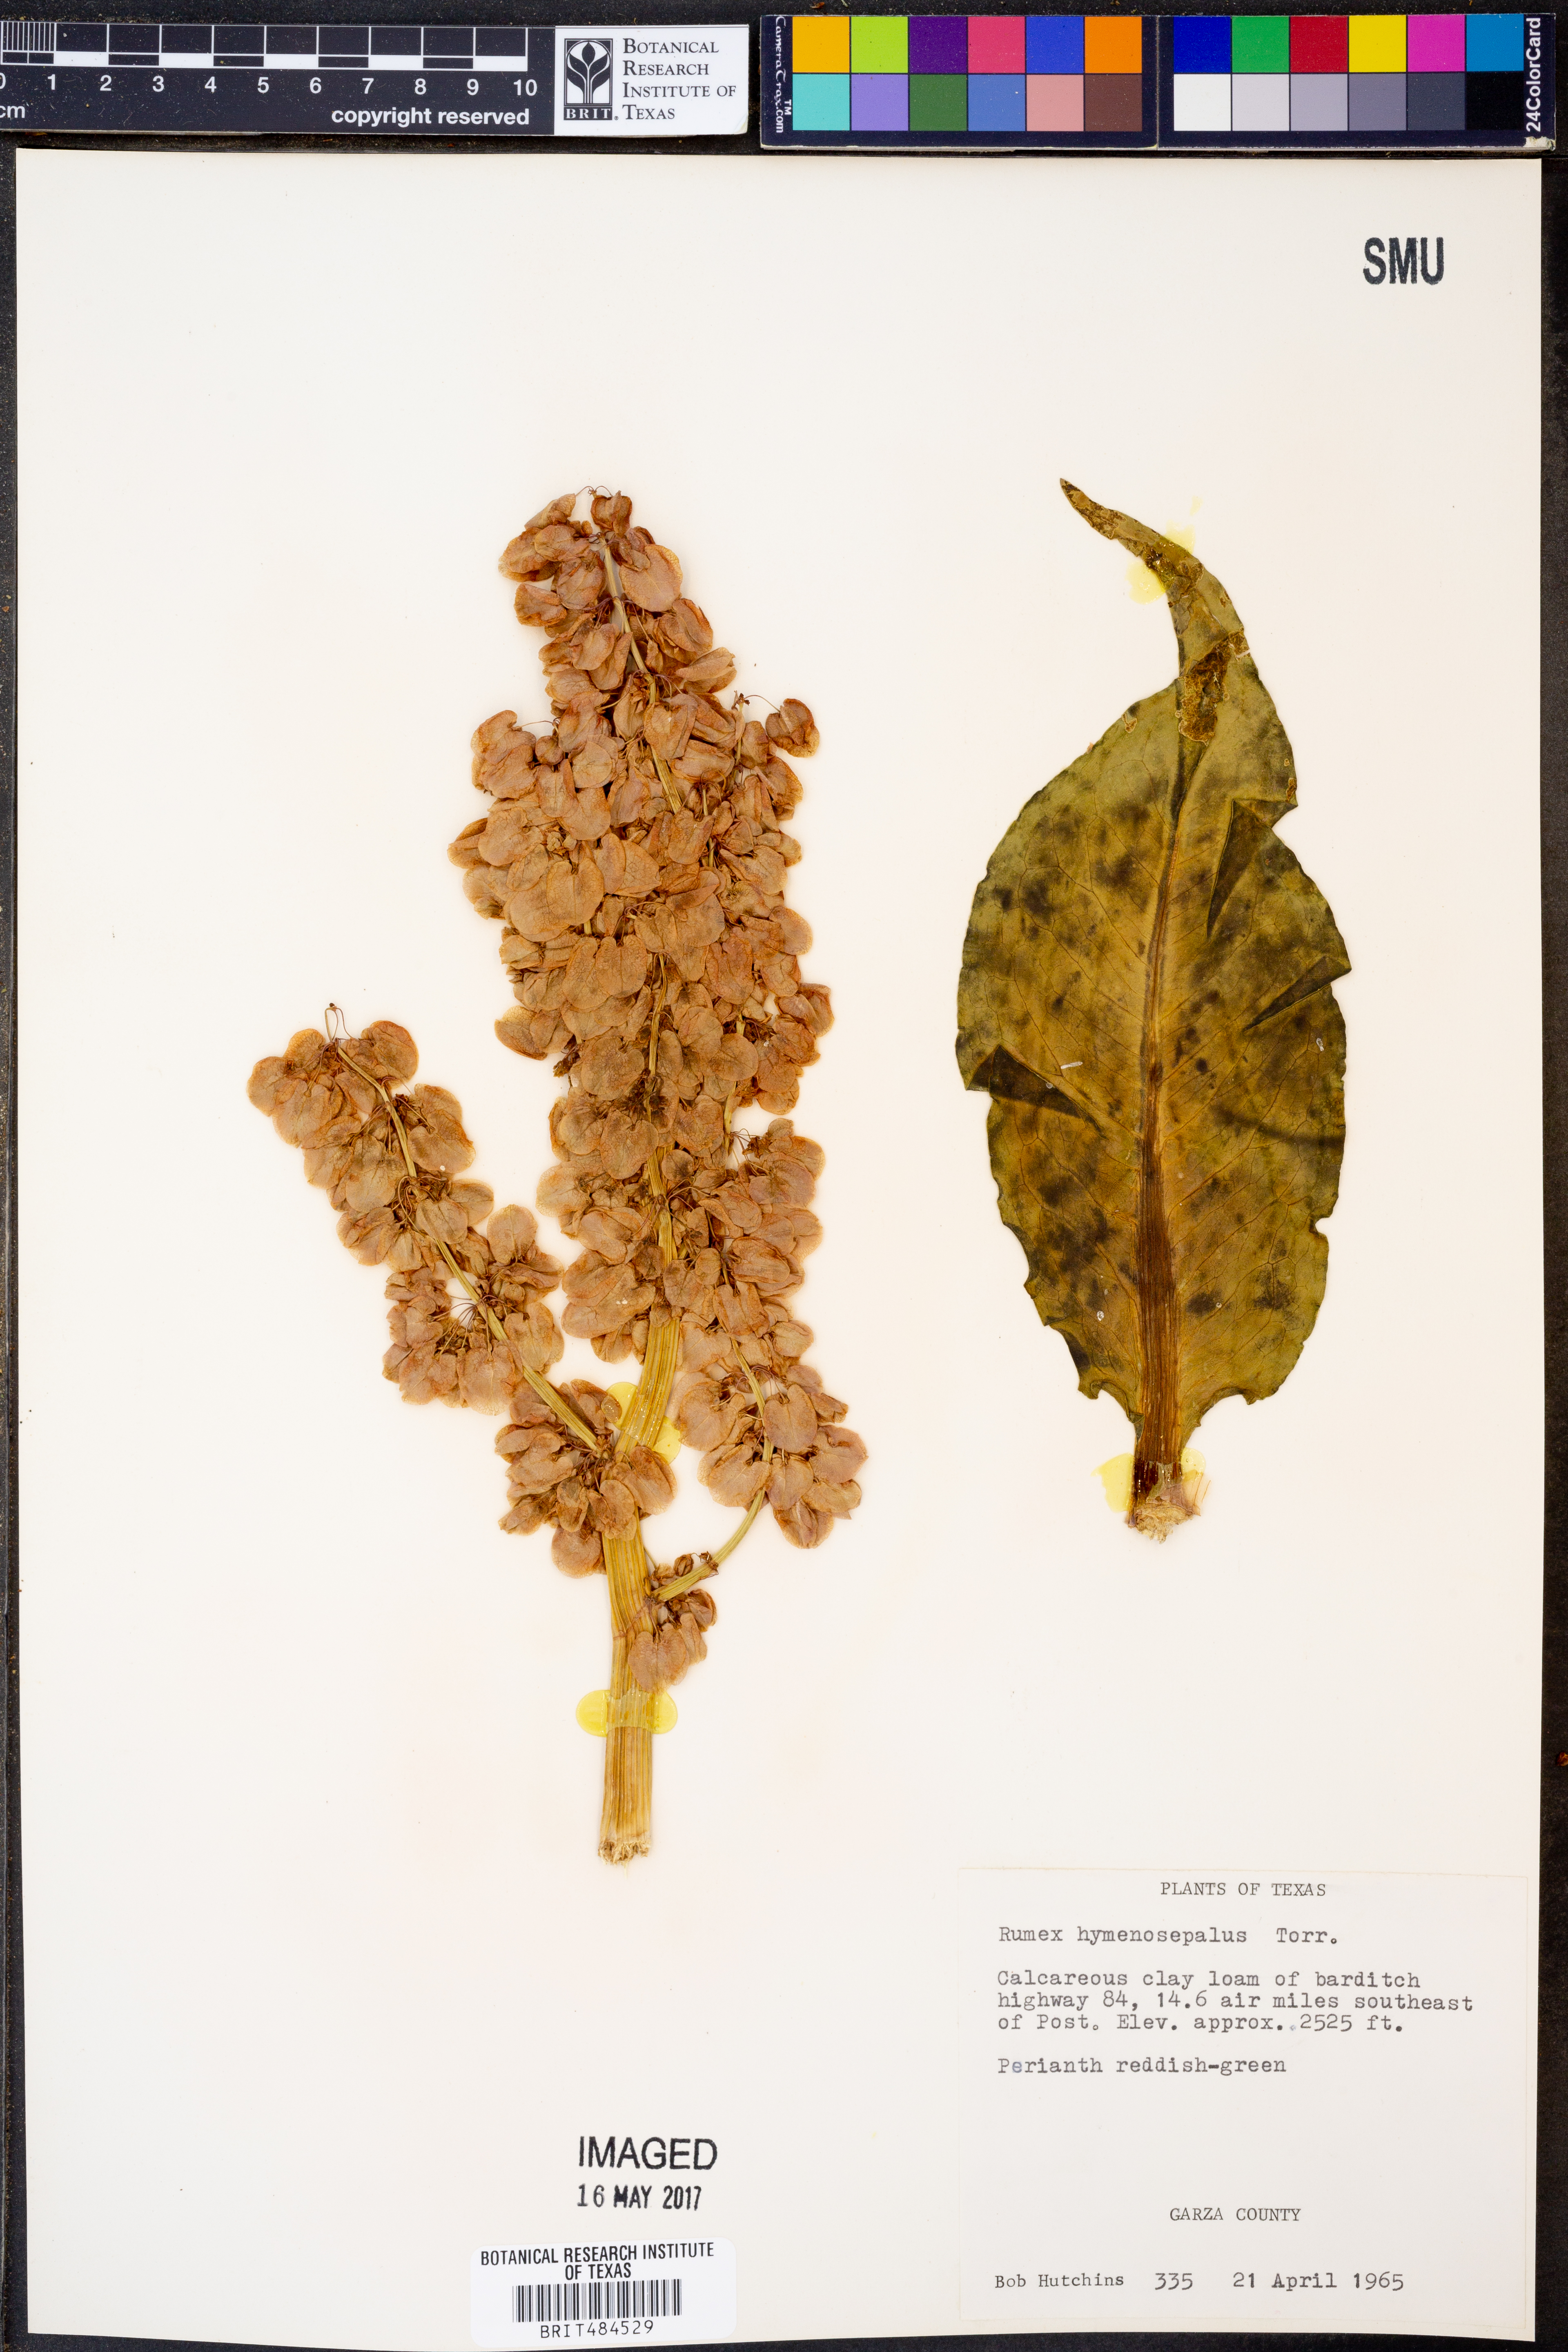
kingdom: Plantae
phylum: Tracheophyta
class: Magnoliopsida
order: Caryophyllales
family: Polygonaceae
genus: Rumex
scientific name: Rumex hymenosepalus
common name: Ganagra
